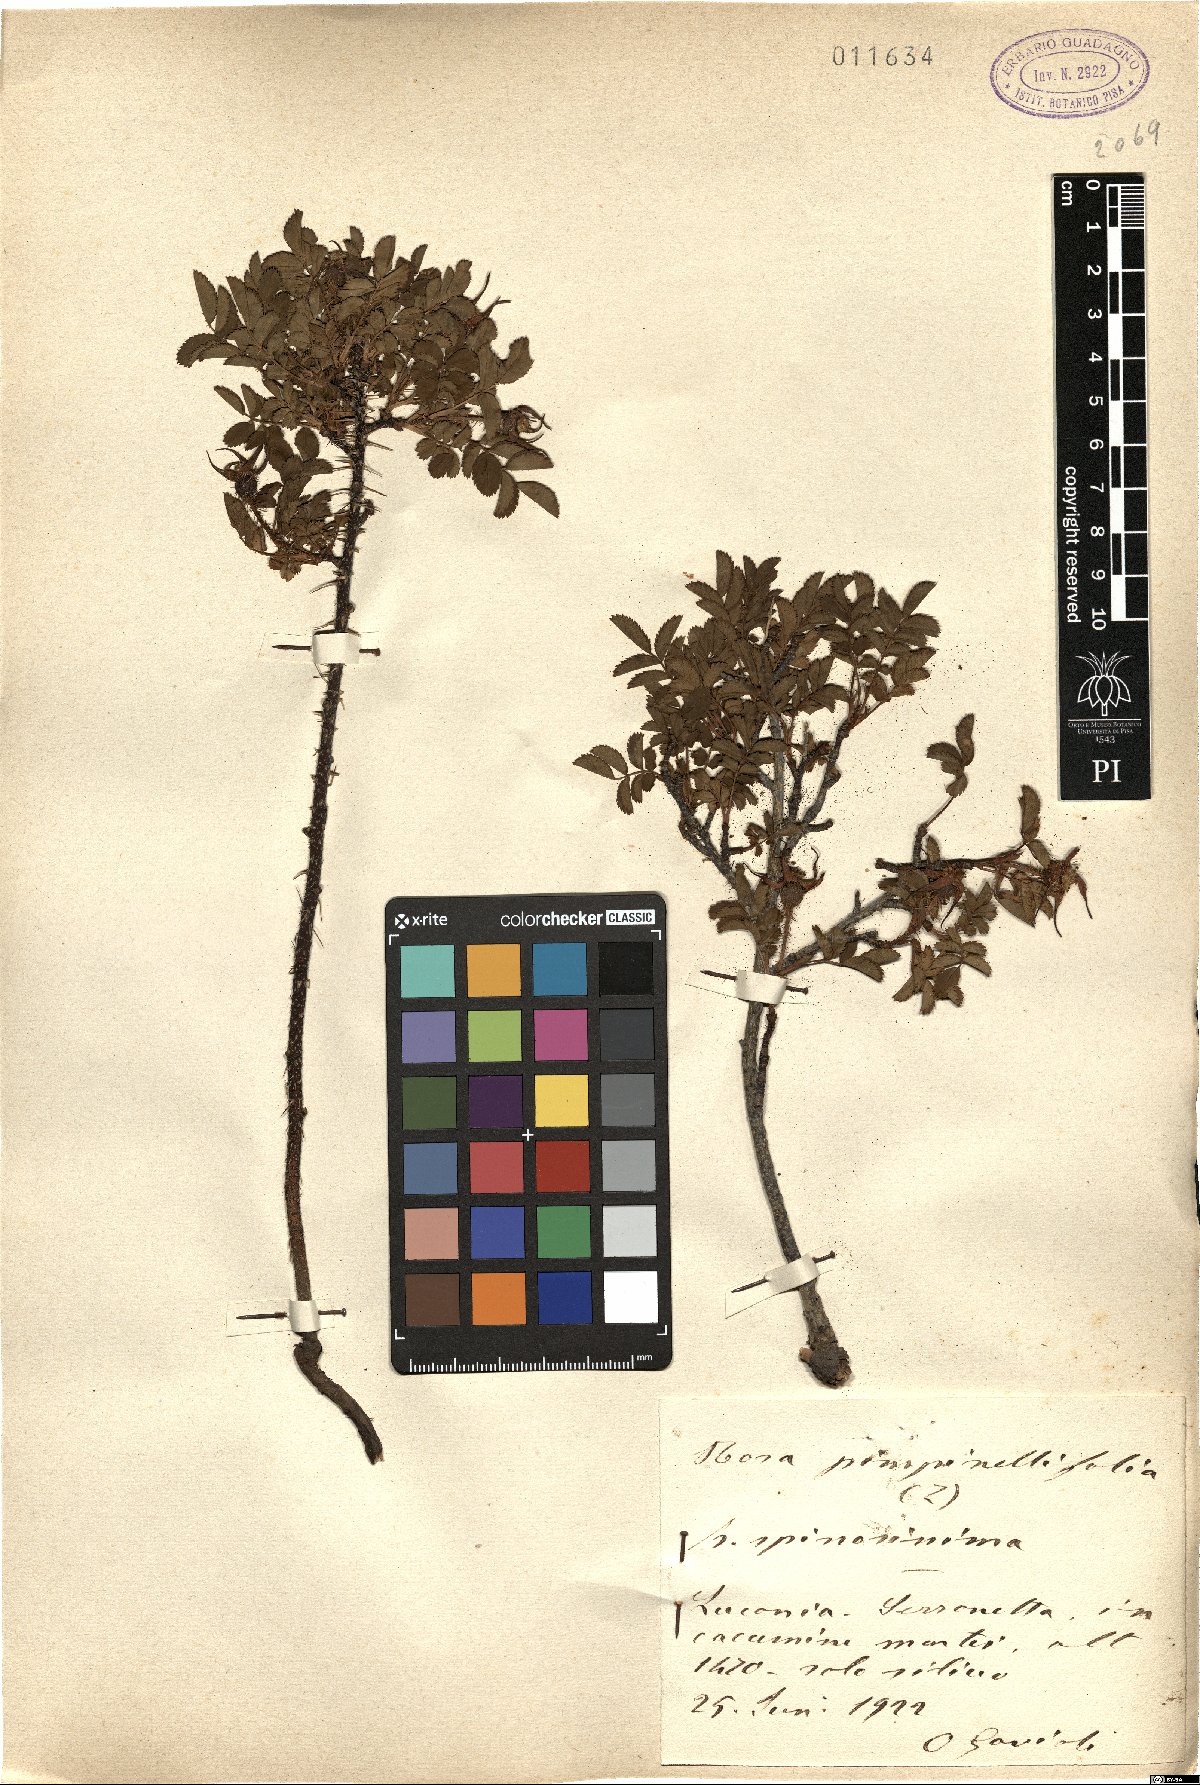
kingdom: Plantae
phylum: Tracheophyta
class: Magnoliopsida
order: Rosales
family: Rosaceae
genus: Rosa
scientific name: Rosa spinosissima
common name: Burnet rose
